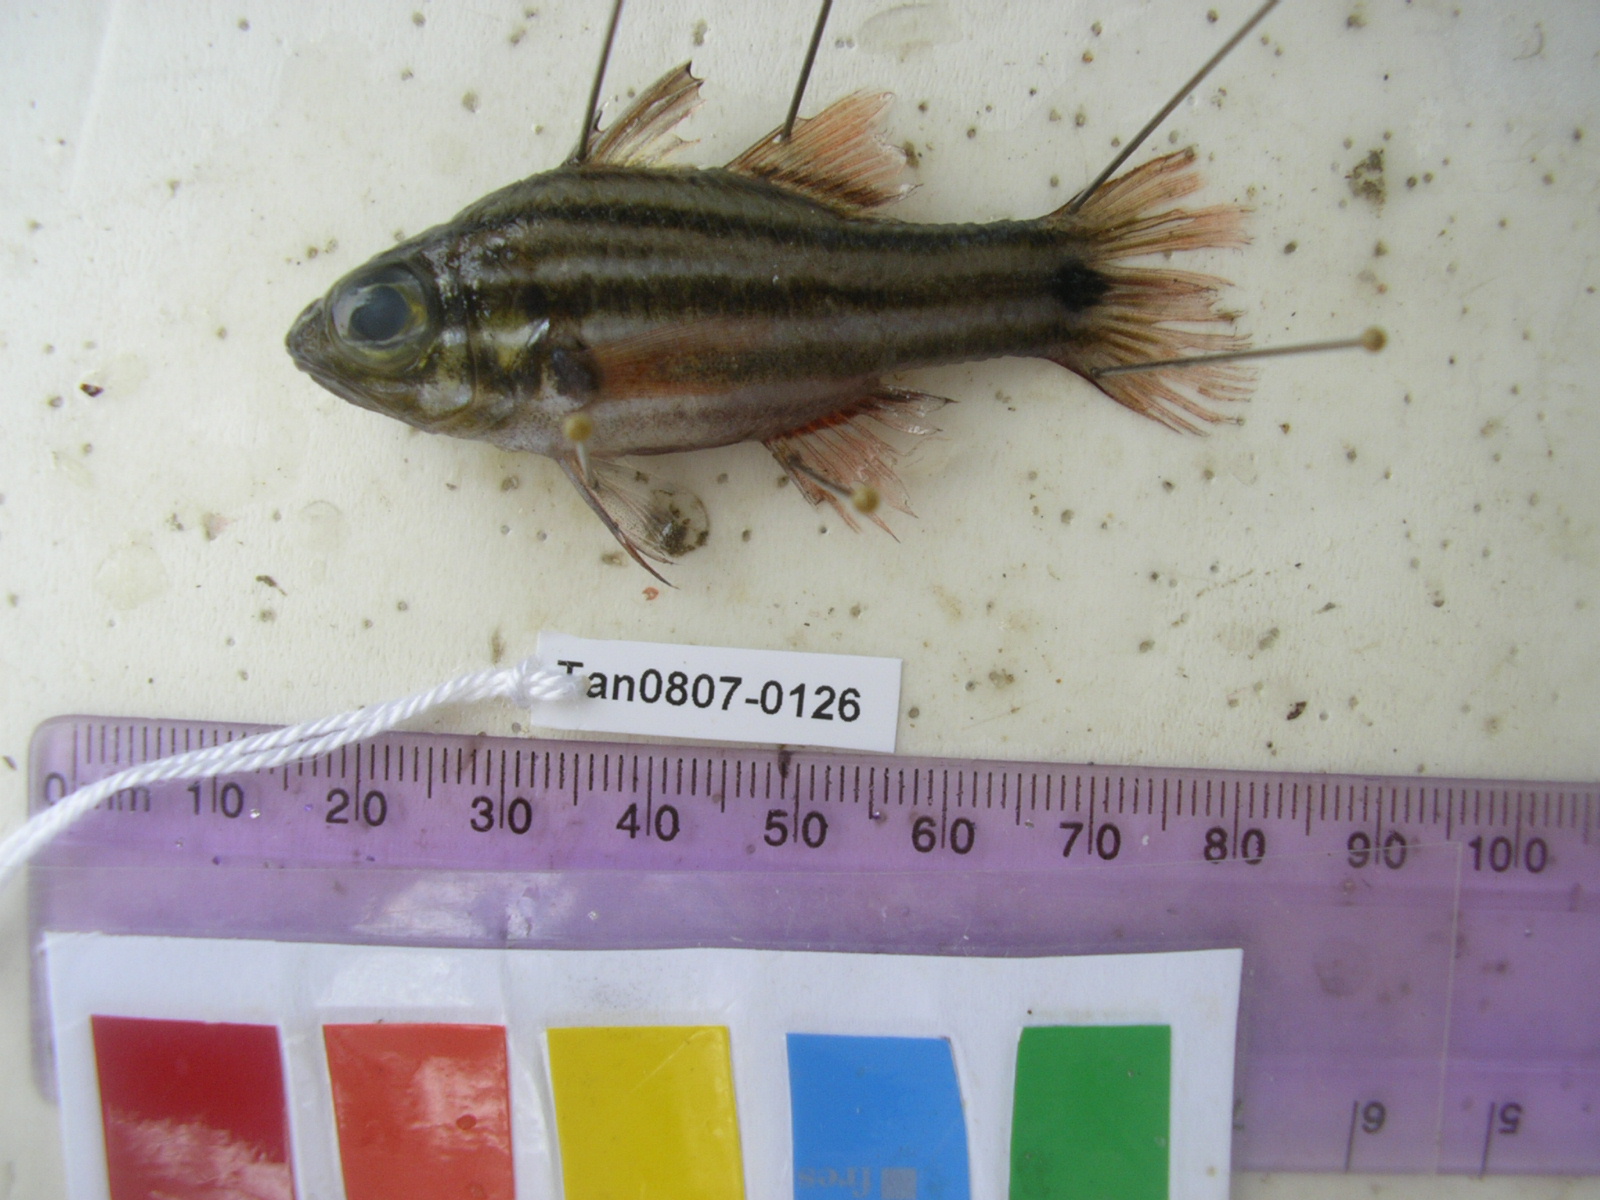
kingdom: Animalia
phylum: Chordata
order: Perciformes
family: Apogonidae
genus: Ostorhinchus
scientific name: Ostorhinchus cookii
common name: Cook's cardinalfish
